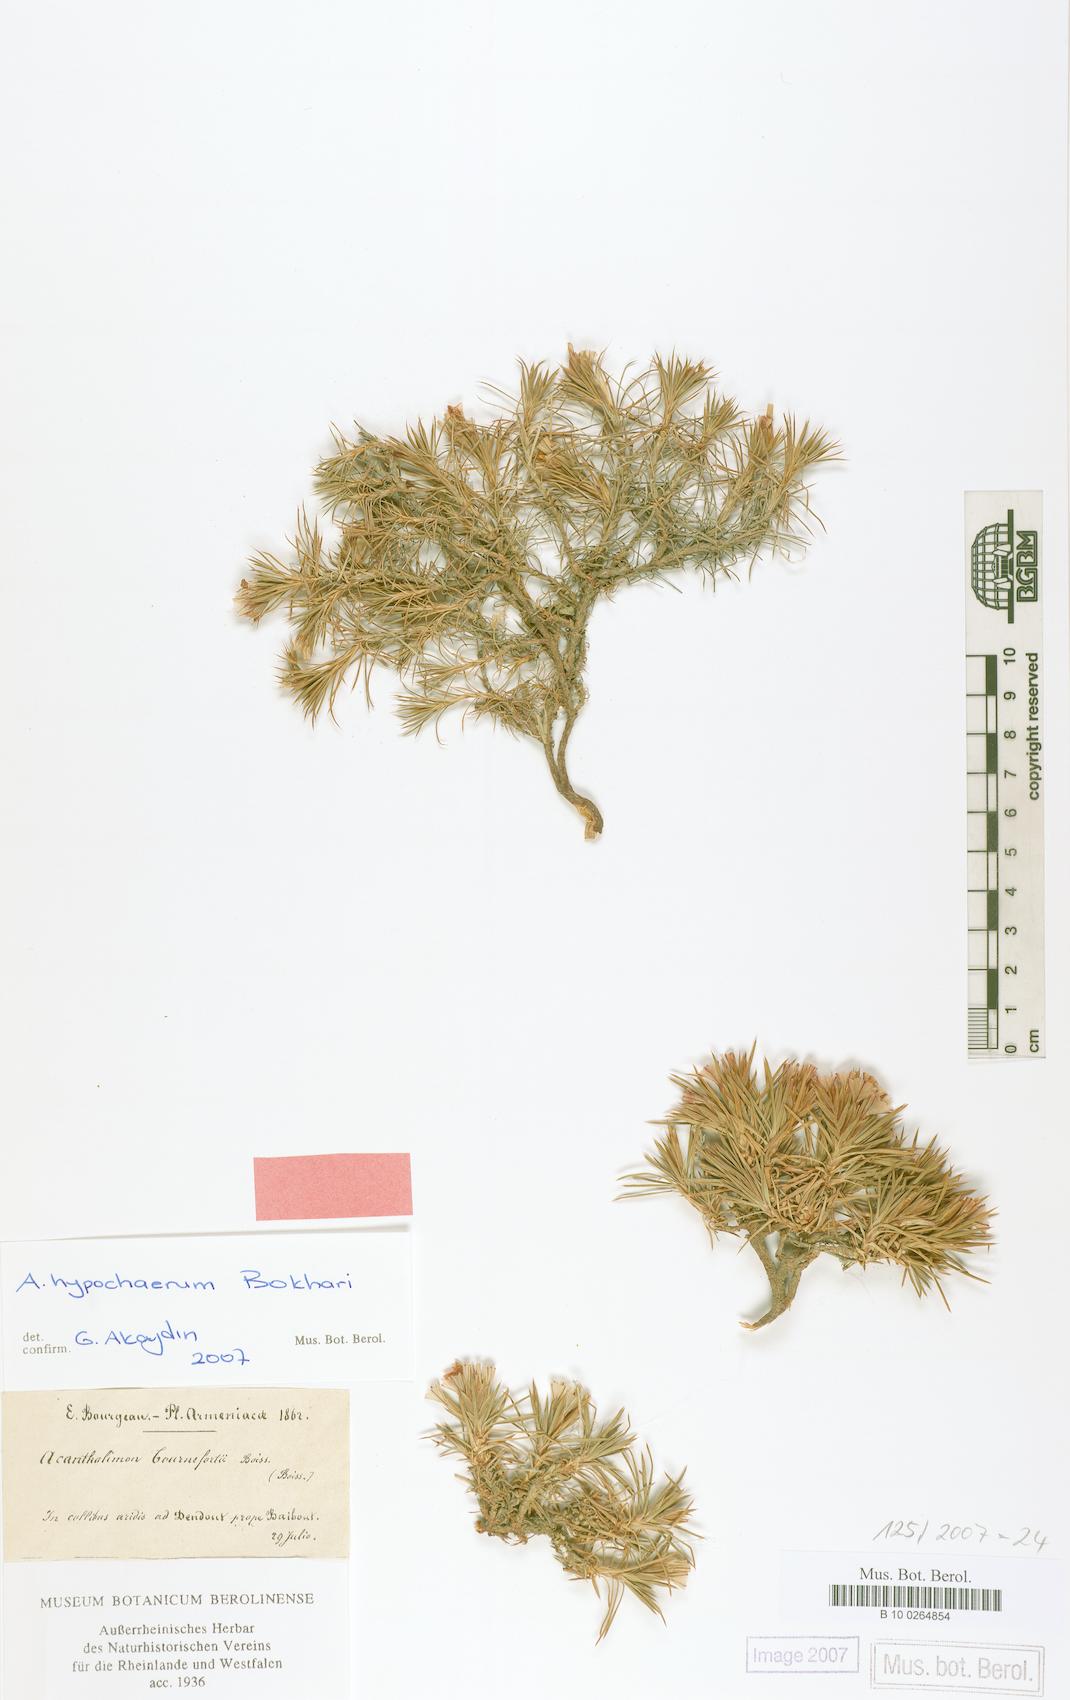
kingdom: Plantae
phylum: Tracheophyta
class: Magnoliopsida
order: Caryophyllales
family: Plumbaginaceae
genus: Acantholimon
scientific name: Acantholimon hypochaerum
